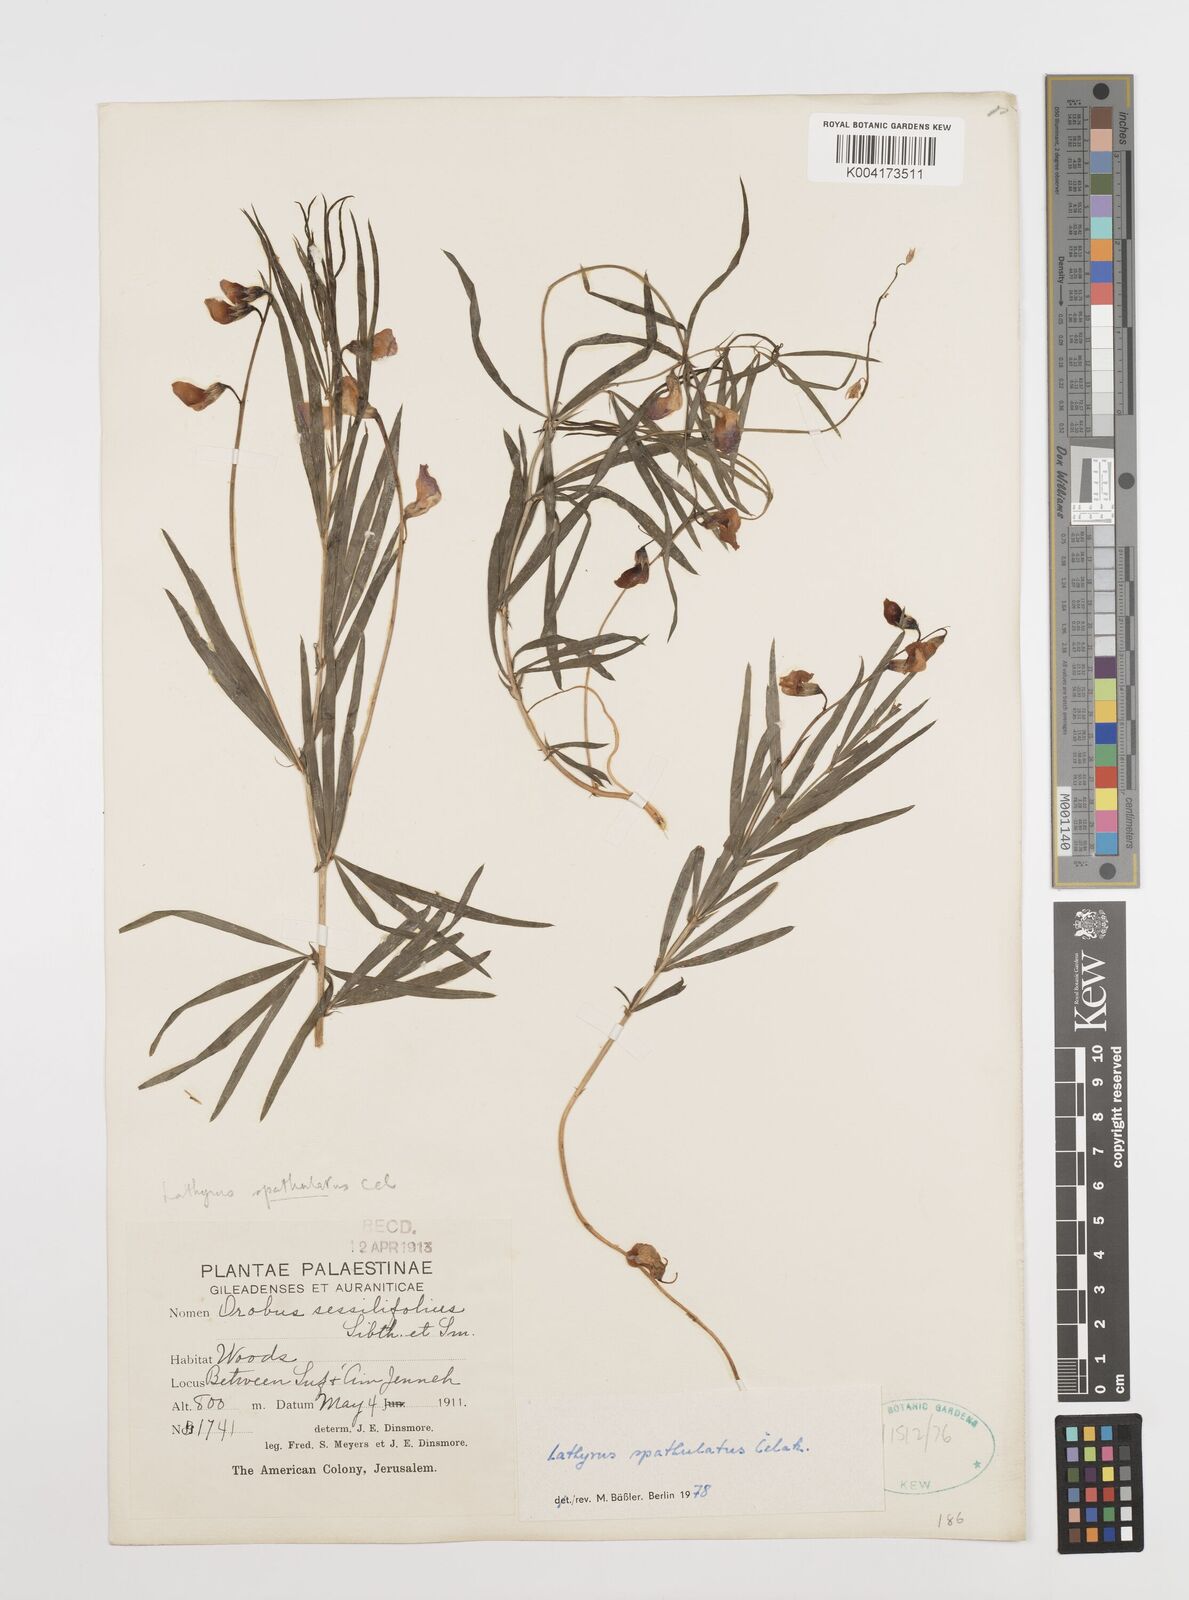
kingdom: Plantae
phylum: Tracheophyta
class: Magnoliopsida
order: Fabales
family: Fabaceae
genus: Lathyrus
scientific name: Lathyrus spathulatus
